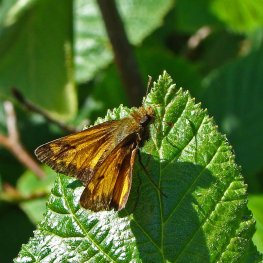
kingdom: Animalia
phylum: Arthropoda
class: Insecta
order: Lepidoptera
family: Hesperiidae
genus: Lon
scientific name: Lon hobomok
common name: Hobomok Skipper
